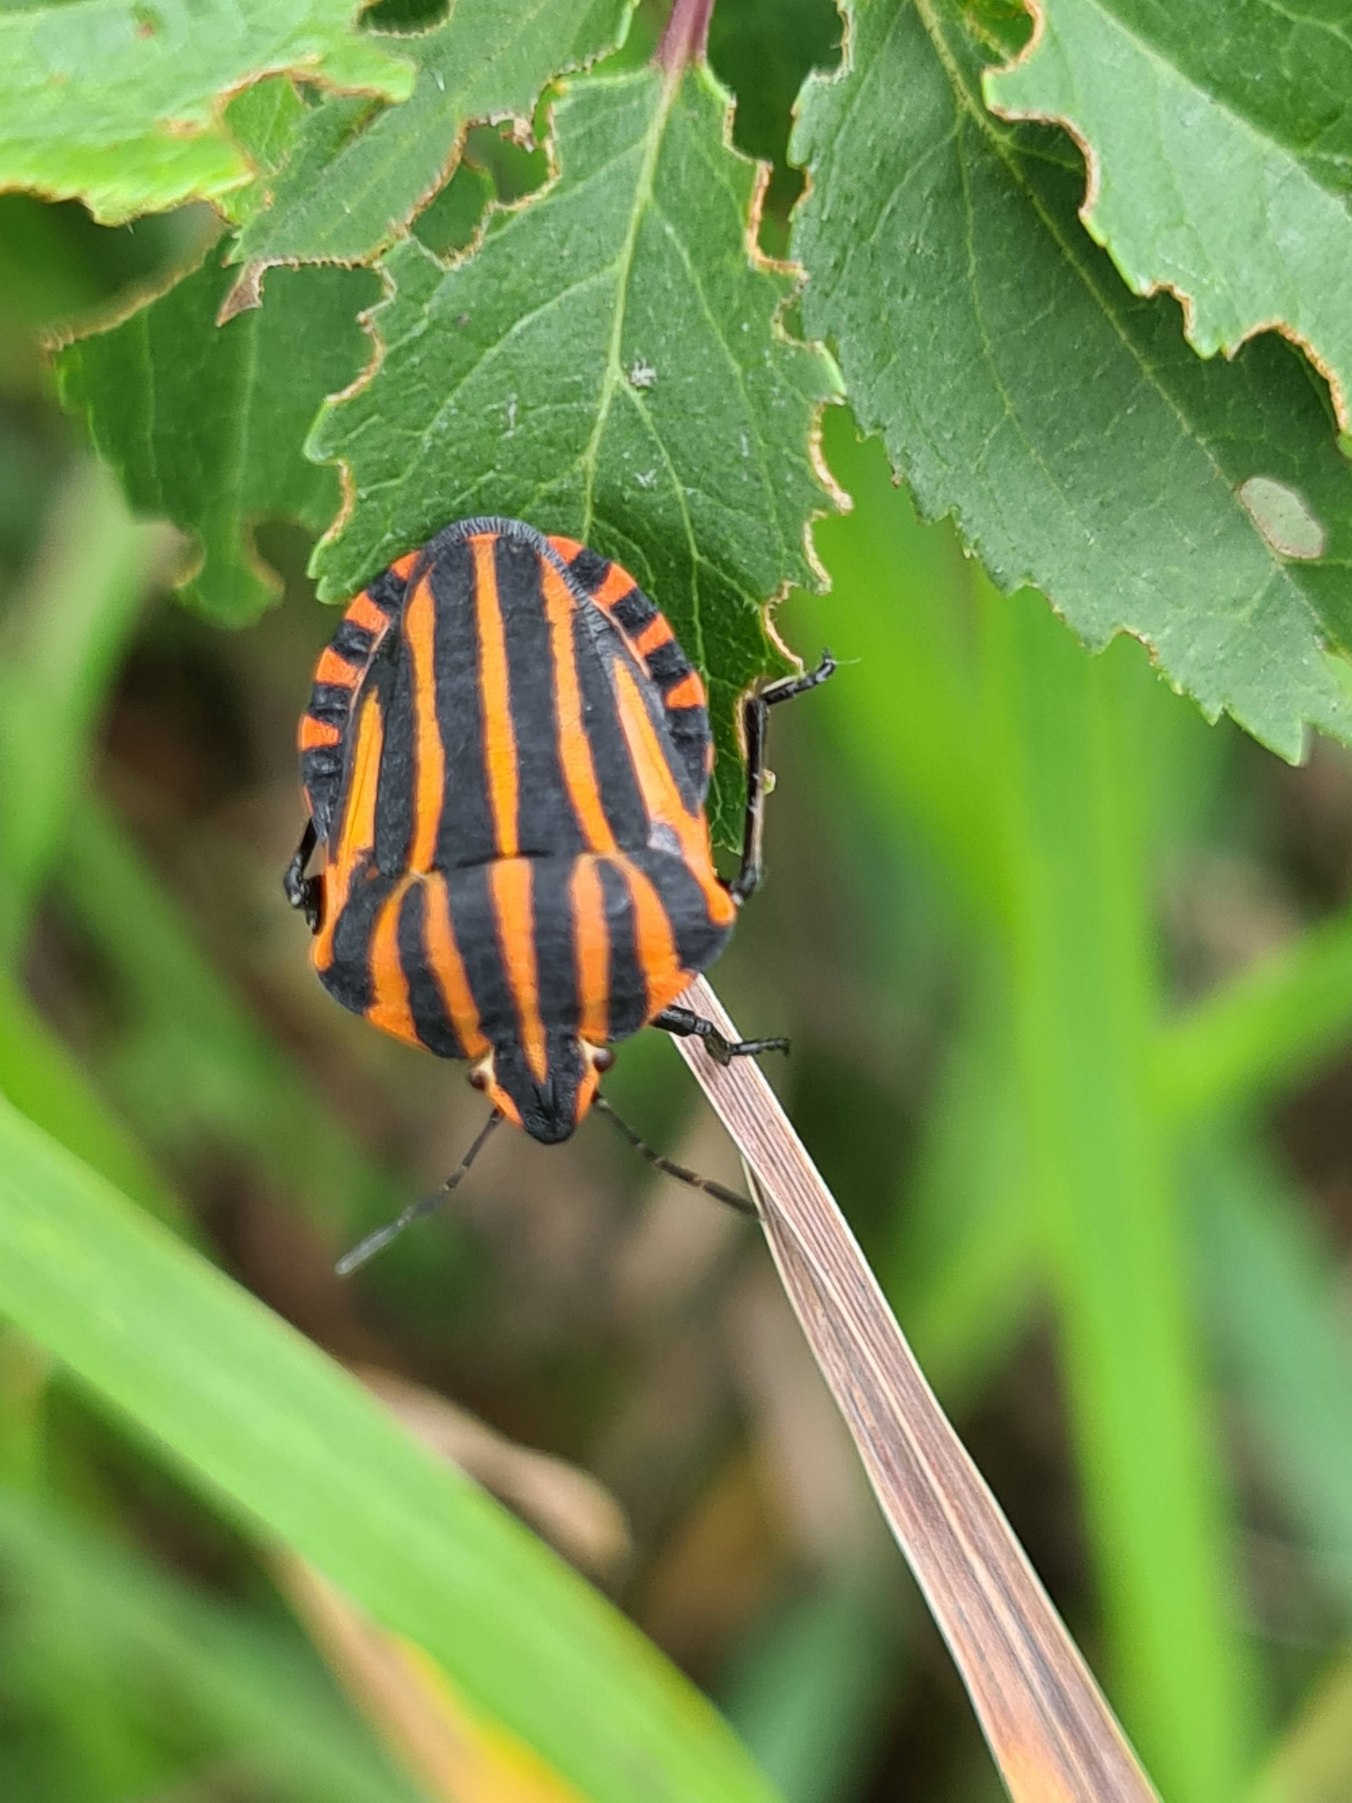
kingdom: Animalia
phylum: Arthropoda
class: Insecta
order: Hemiptera
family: Pentatomidae
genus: Graphosoma
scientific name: Graphosoma italicum
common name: Stribetæge
